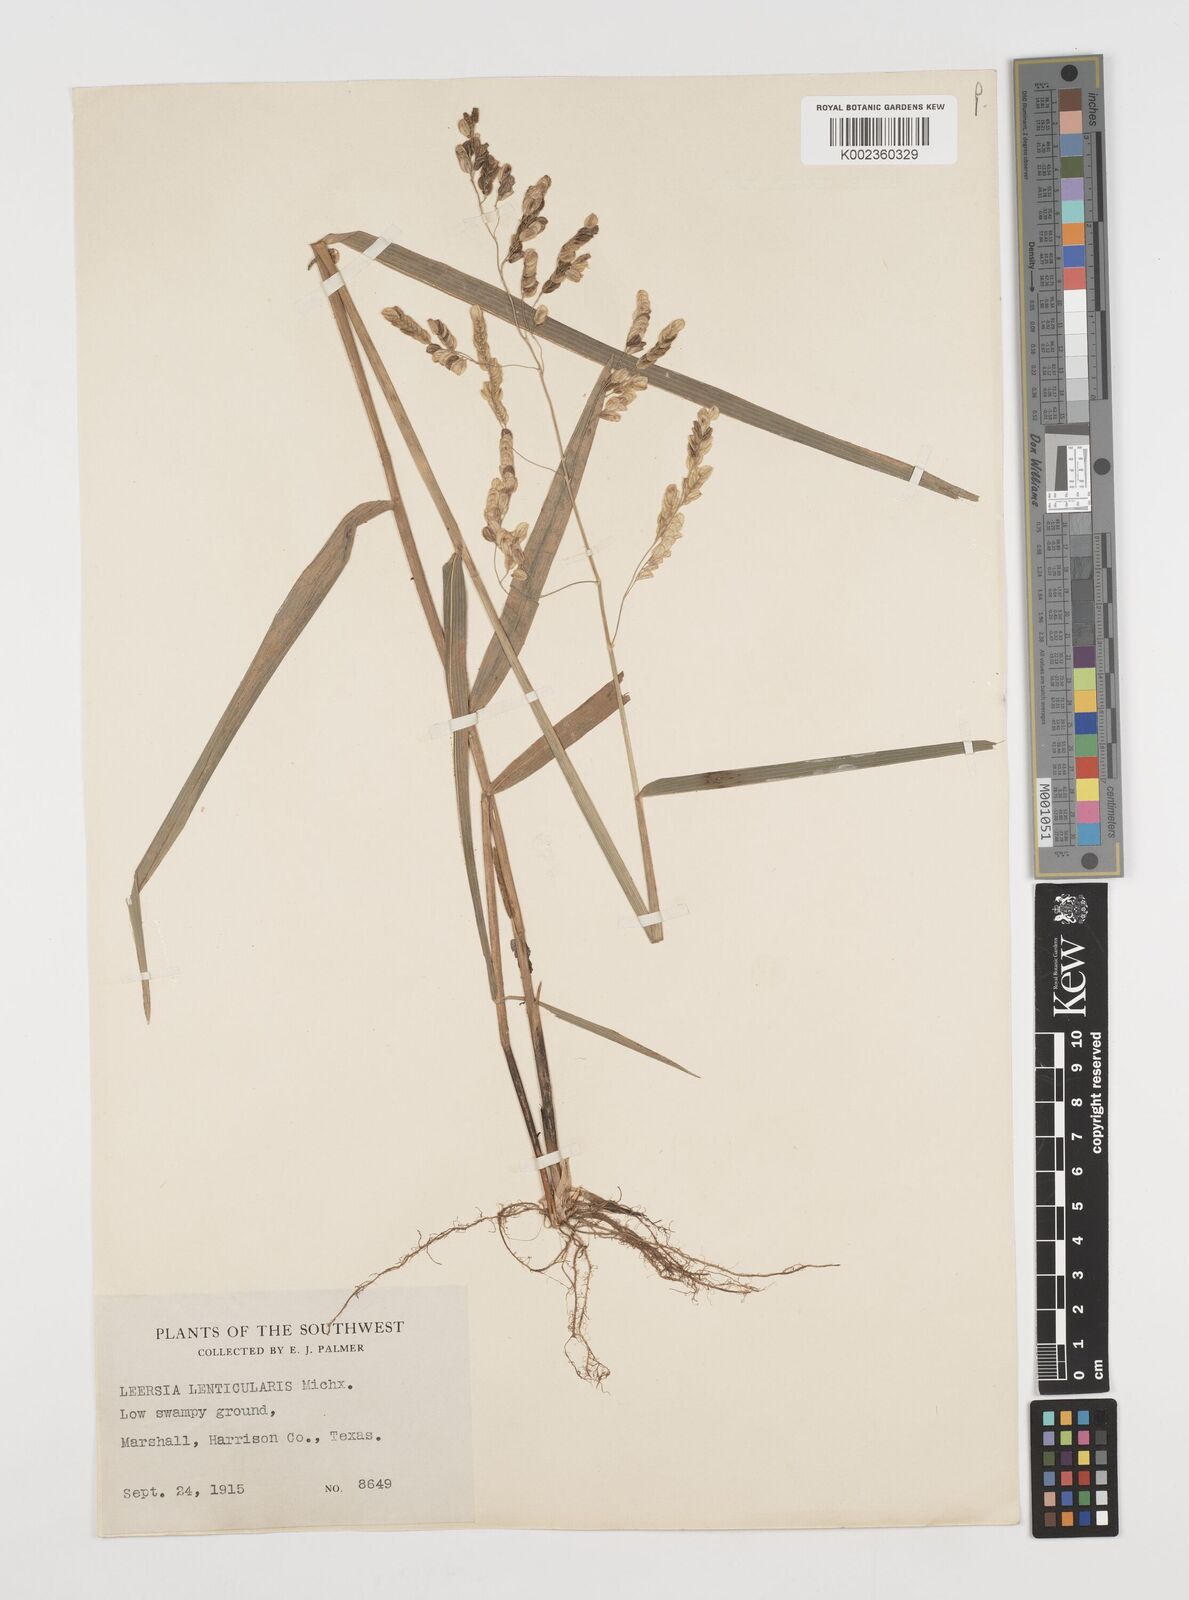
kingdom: Plantae
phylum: Tracheophyta
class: Liliopsida
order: Poales
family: Poaceae
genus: Leersia
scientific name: Leersia lenticularis
